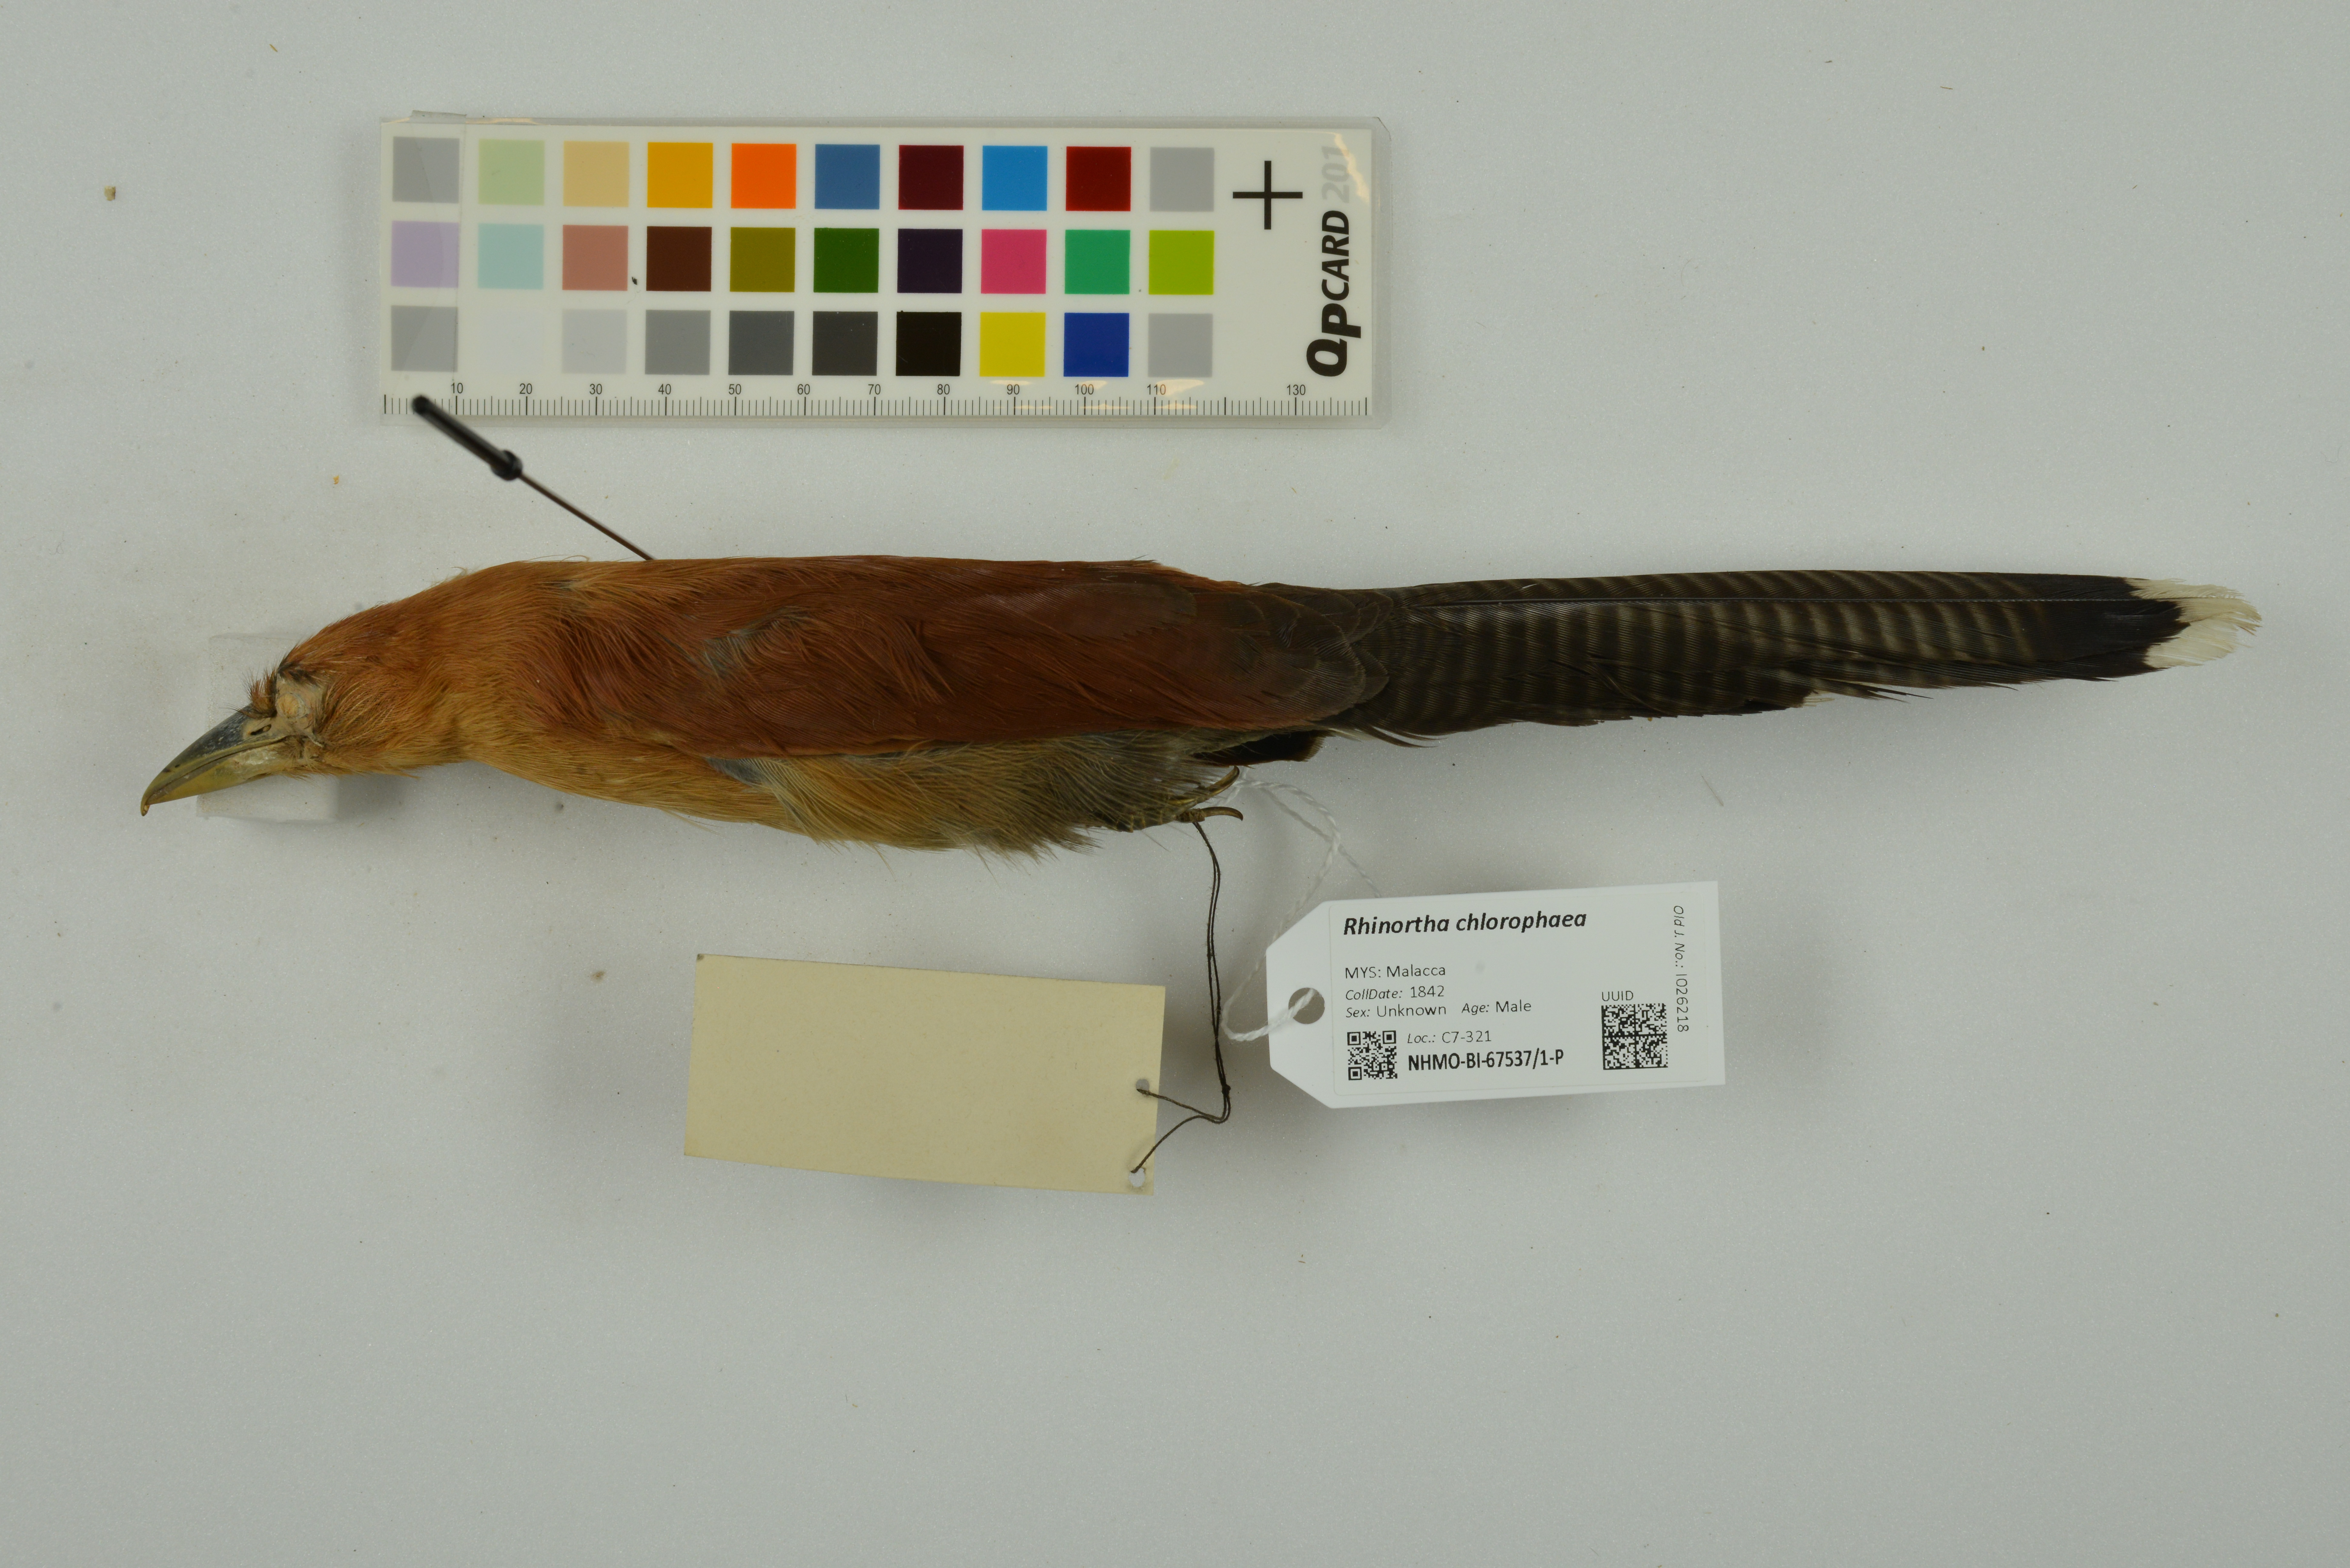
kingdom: Animalia
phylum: Chordata
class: Aves
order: Cuculiformes
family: Cuculidae
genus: Rhinortha
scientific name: Rhinortha chlorophaea
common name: Raffles's malkoha
